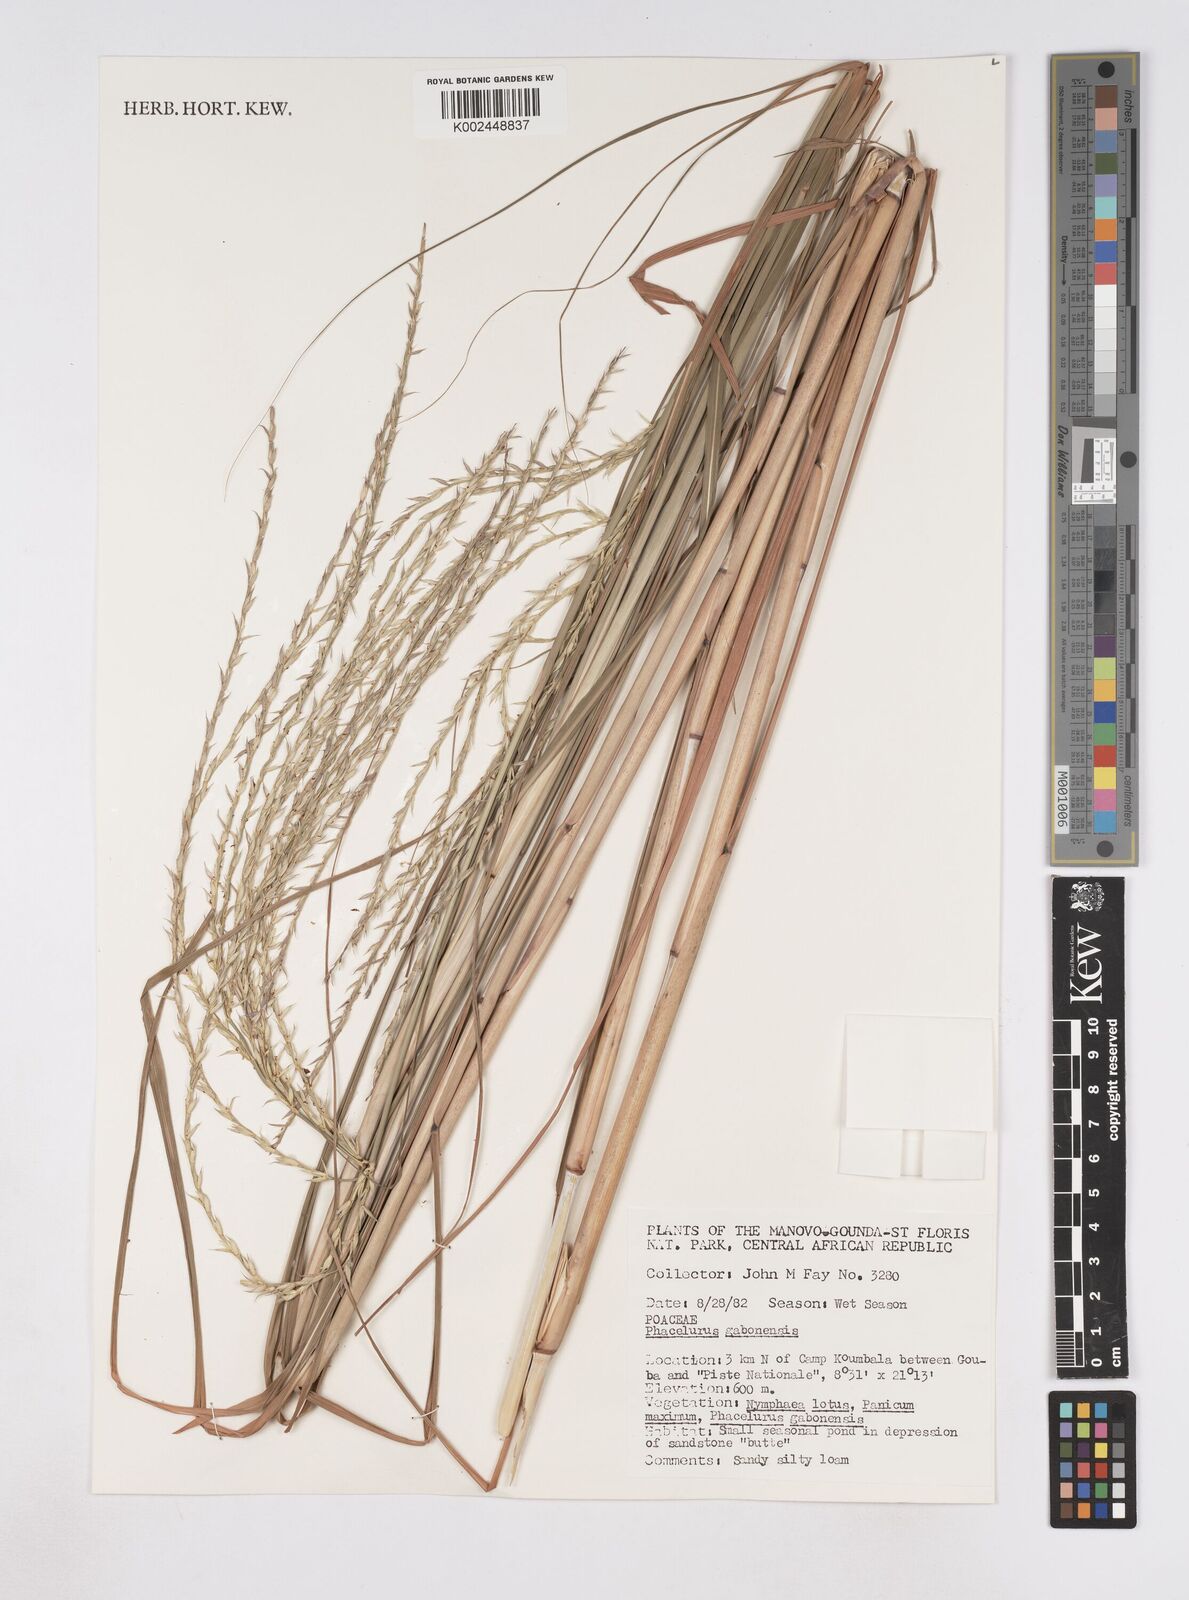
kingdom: Plantae
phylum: Tracheophyta
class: Liliopsida
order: Poales
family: Poaceae
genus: Phacelurus
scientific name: Phacelurus gabonensis
